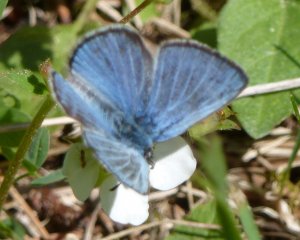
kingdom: Animalia
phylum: Arthropoda
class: Insecta
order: Lepidoptera
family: Lycaenidae
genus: Glaucopsyche
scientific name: Glaucopsyche lygdamus
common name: Silvery Blue
